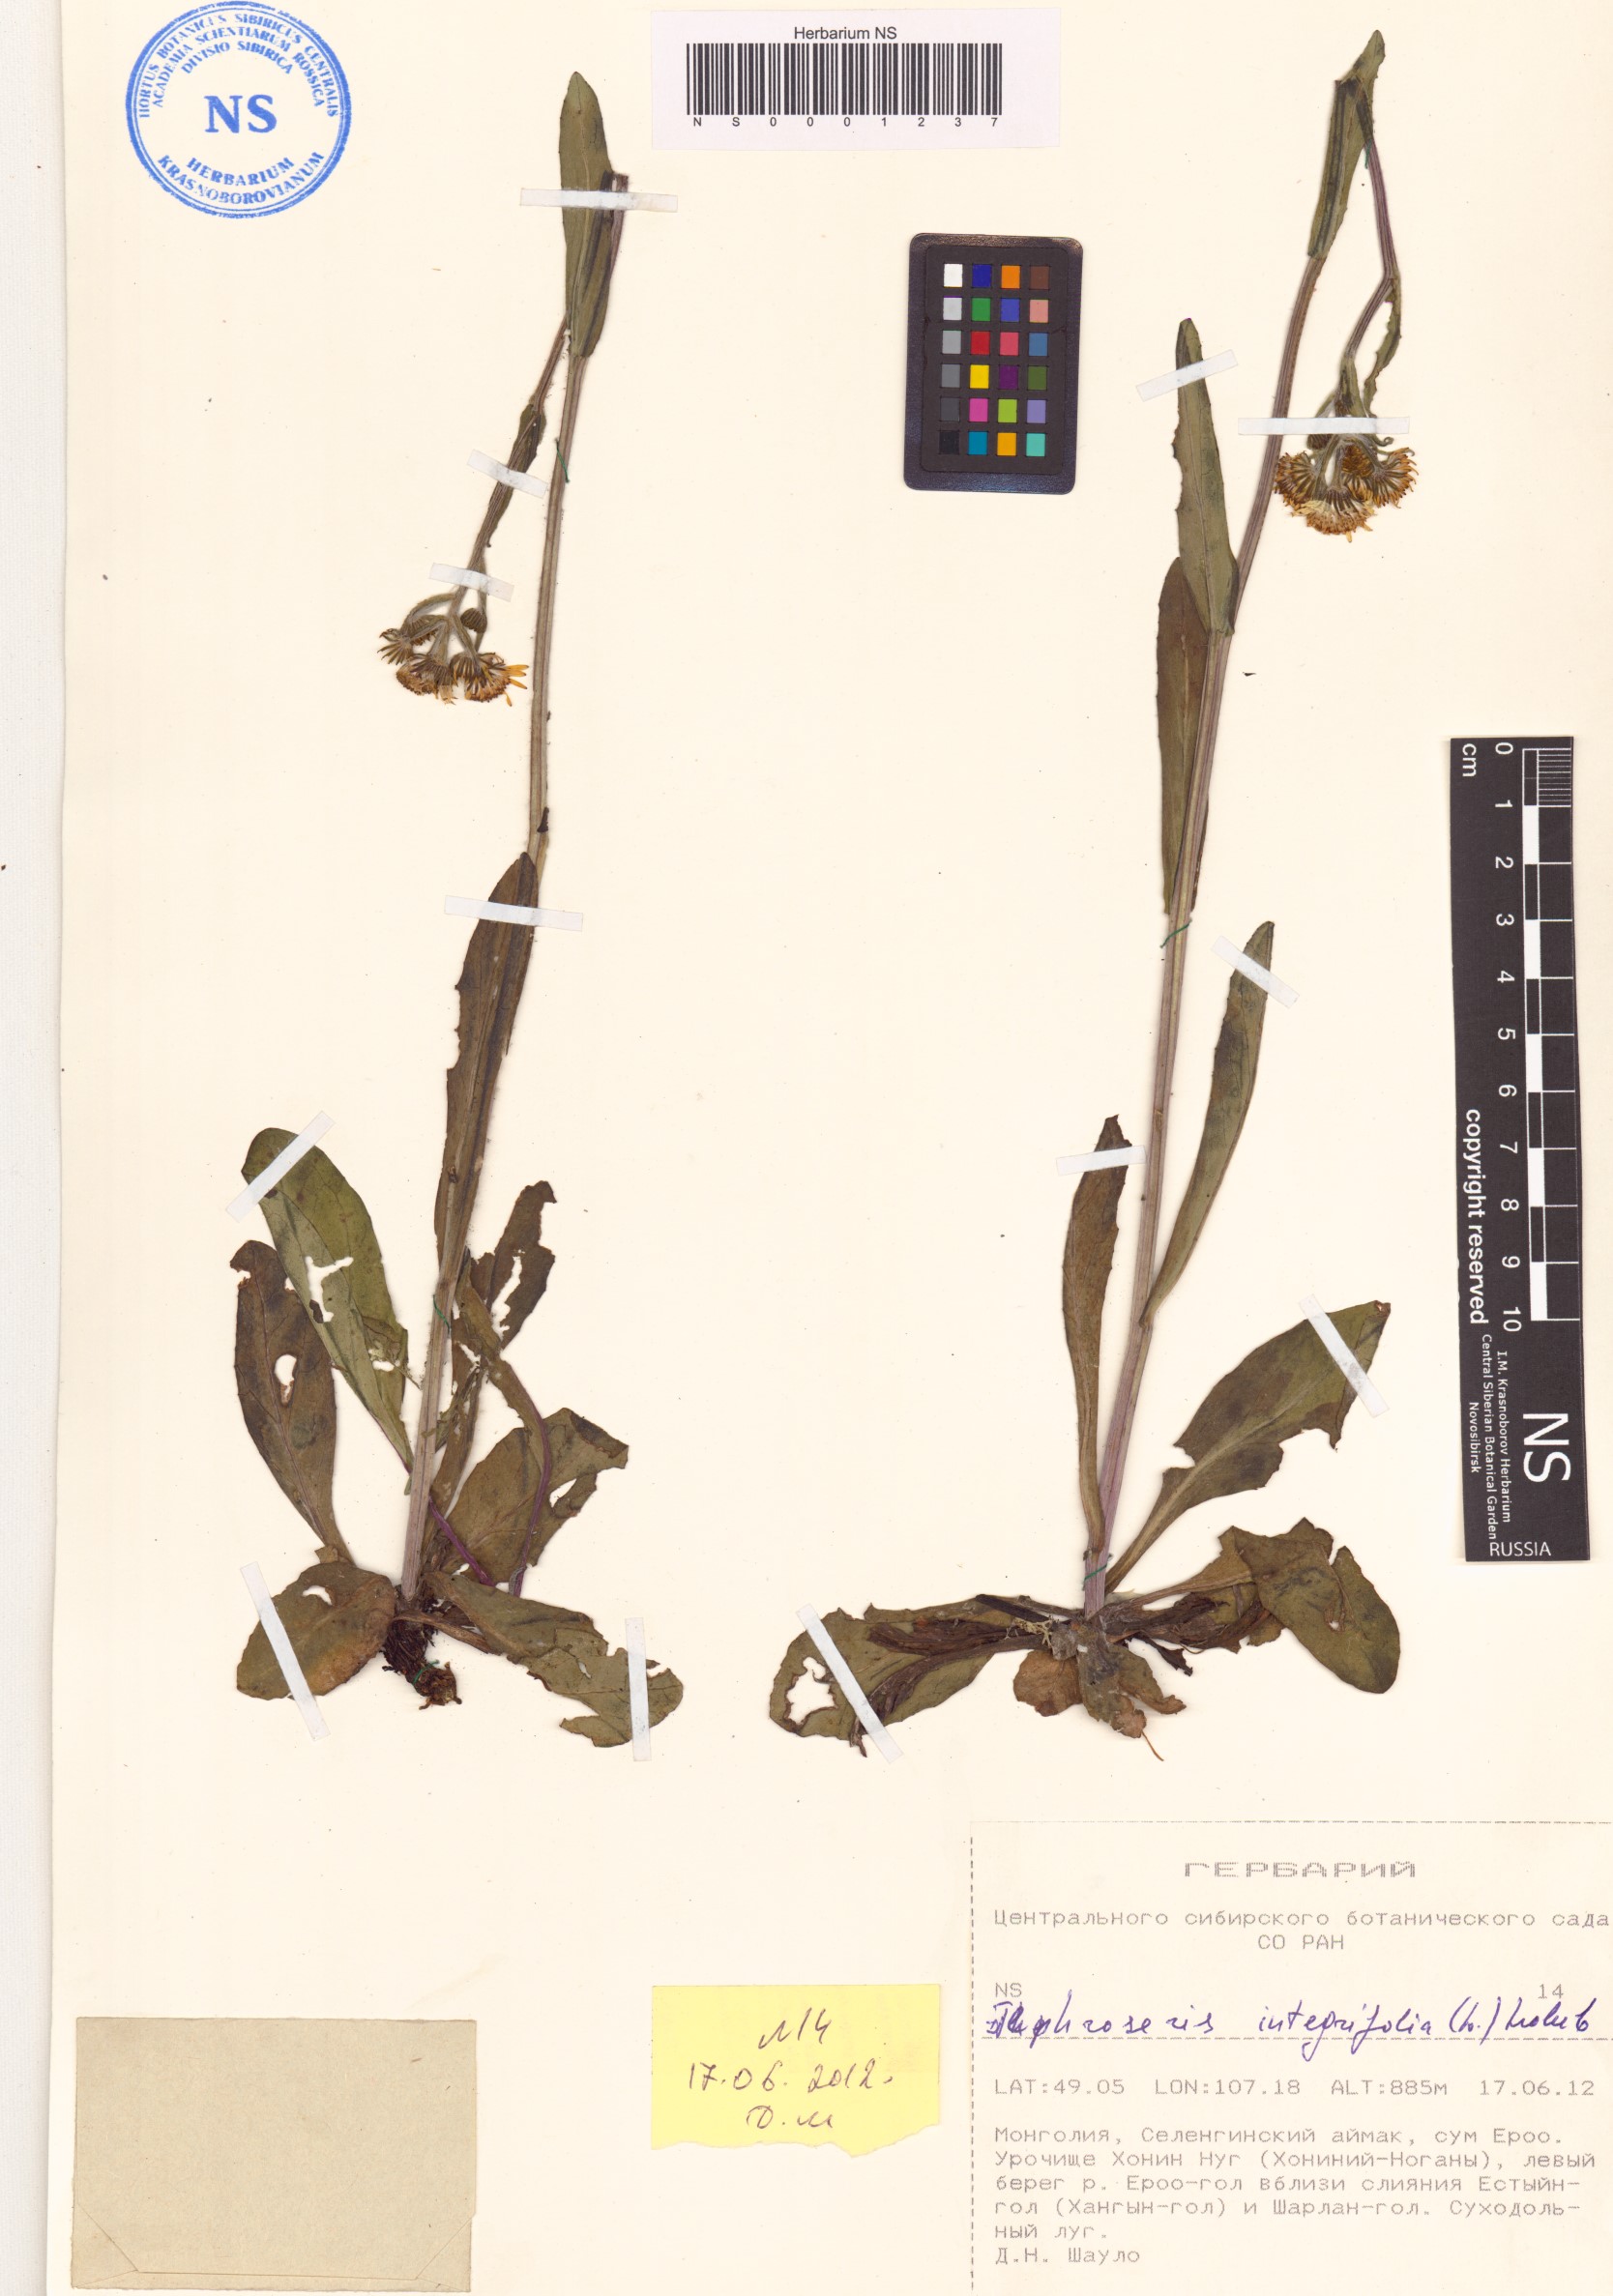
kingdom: Plantae
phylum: Tracheophyta
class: Magnoliopsida
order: Asterales
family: Asteraceae
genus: Tephroseris
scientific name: Tephroseris integrifolia
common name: Field fleawort
